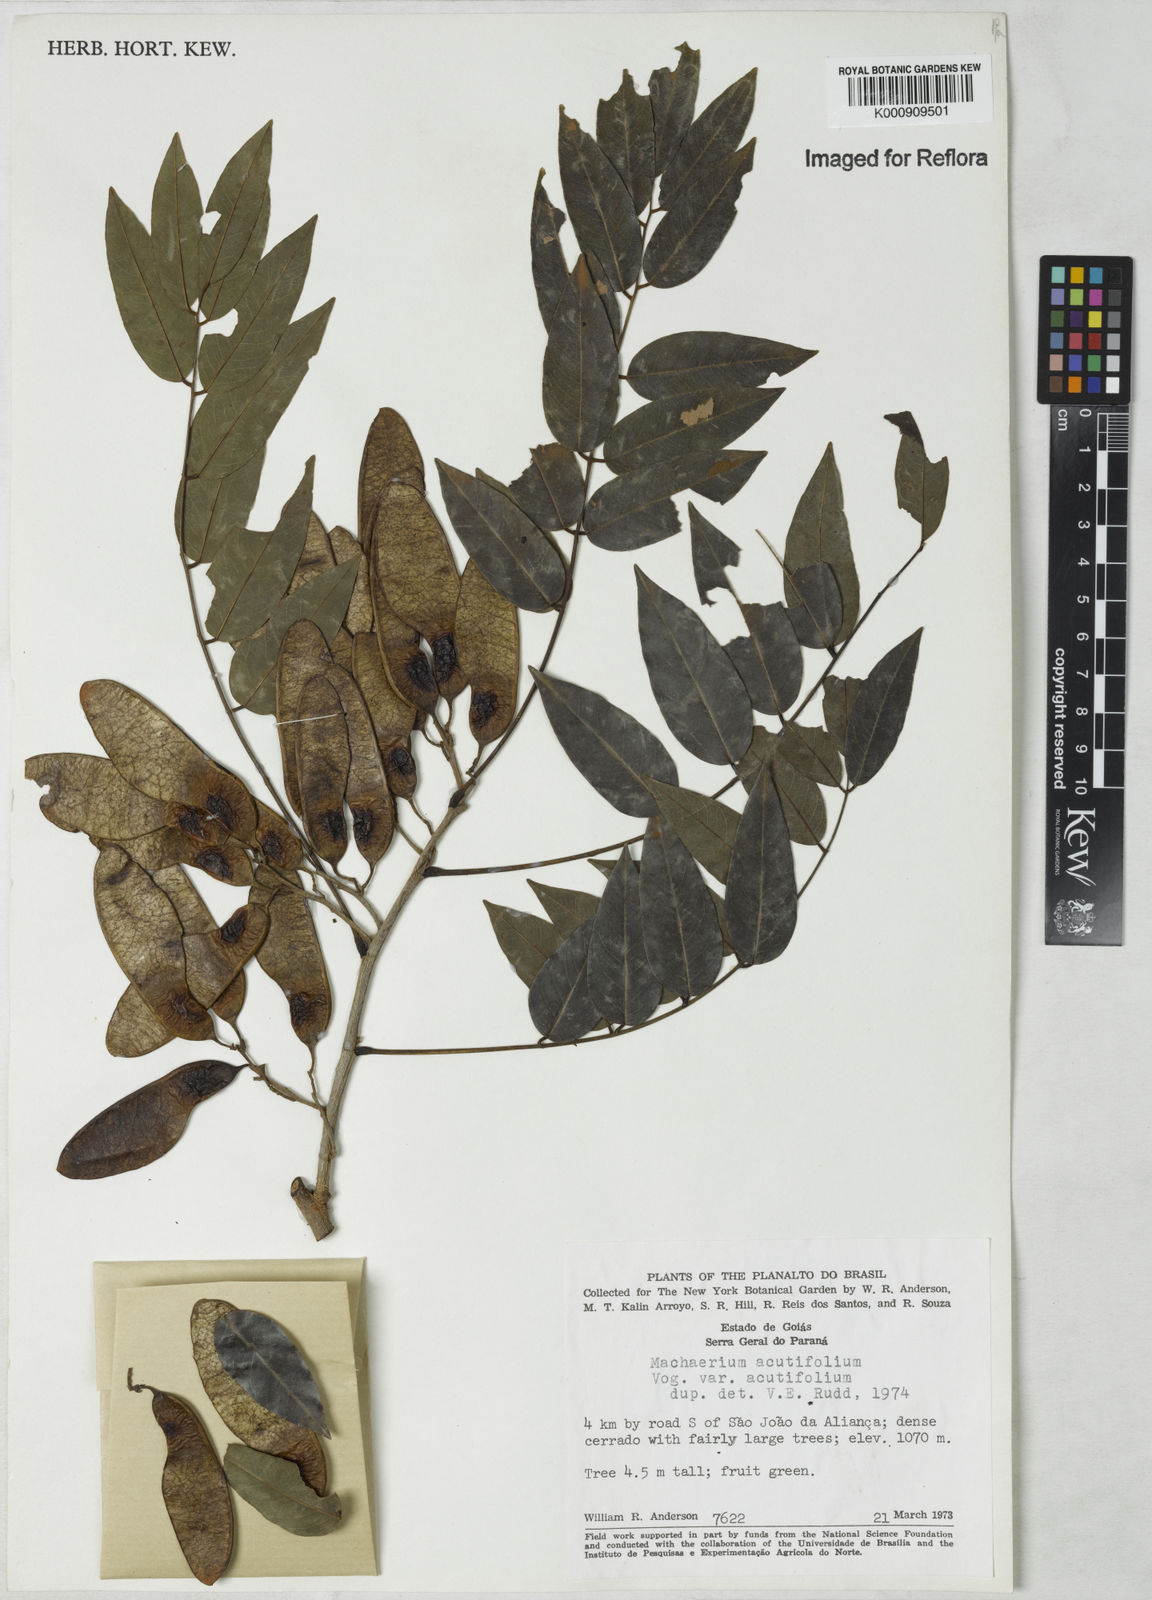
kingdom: Plantae
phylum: Tracheophyta
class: Magnoliopsida
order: Fabales
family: Fabaceae
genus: Machaerium
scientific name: Machaerium acutifolium
